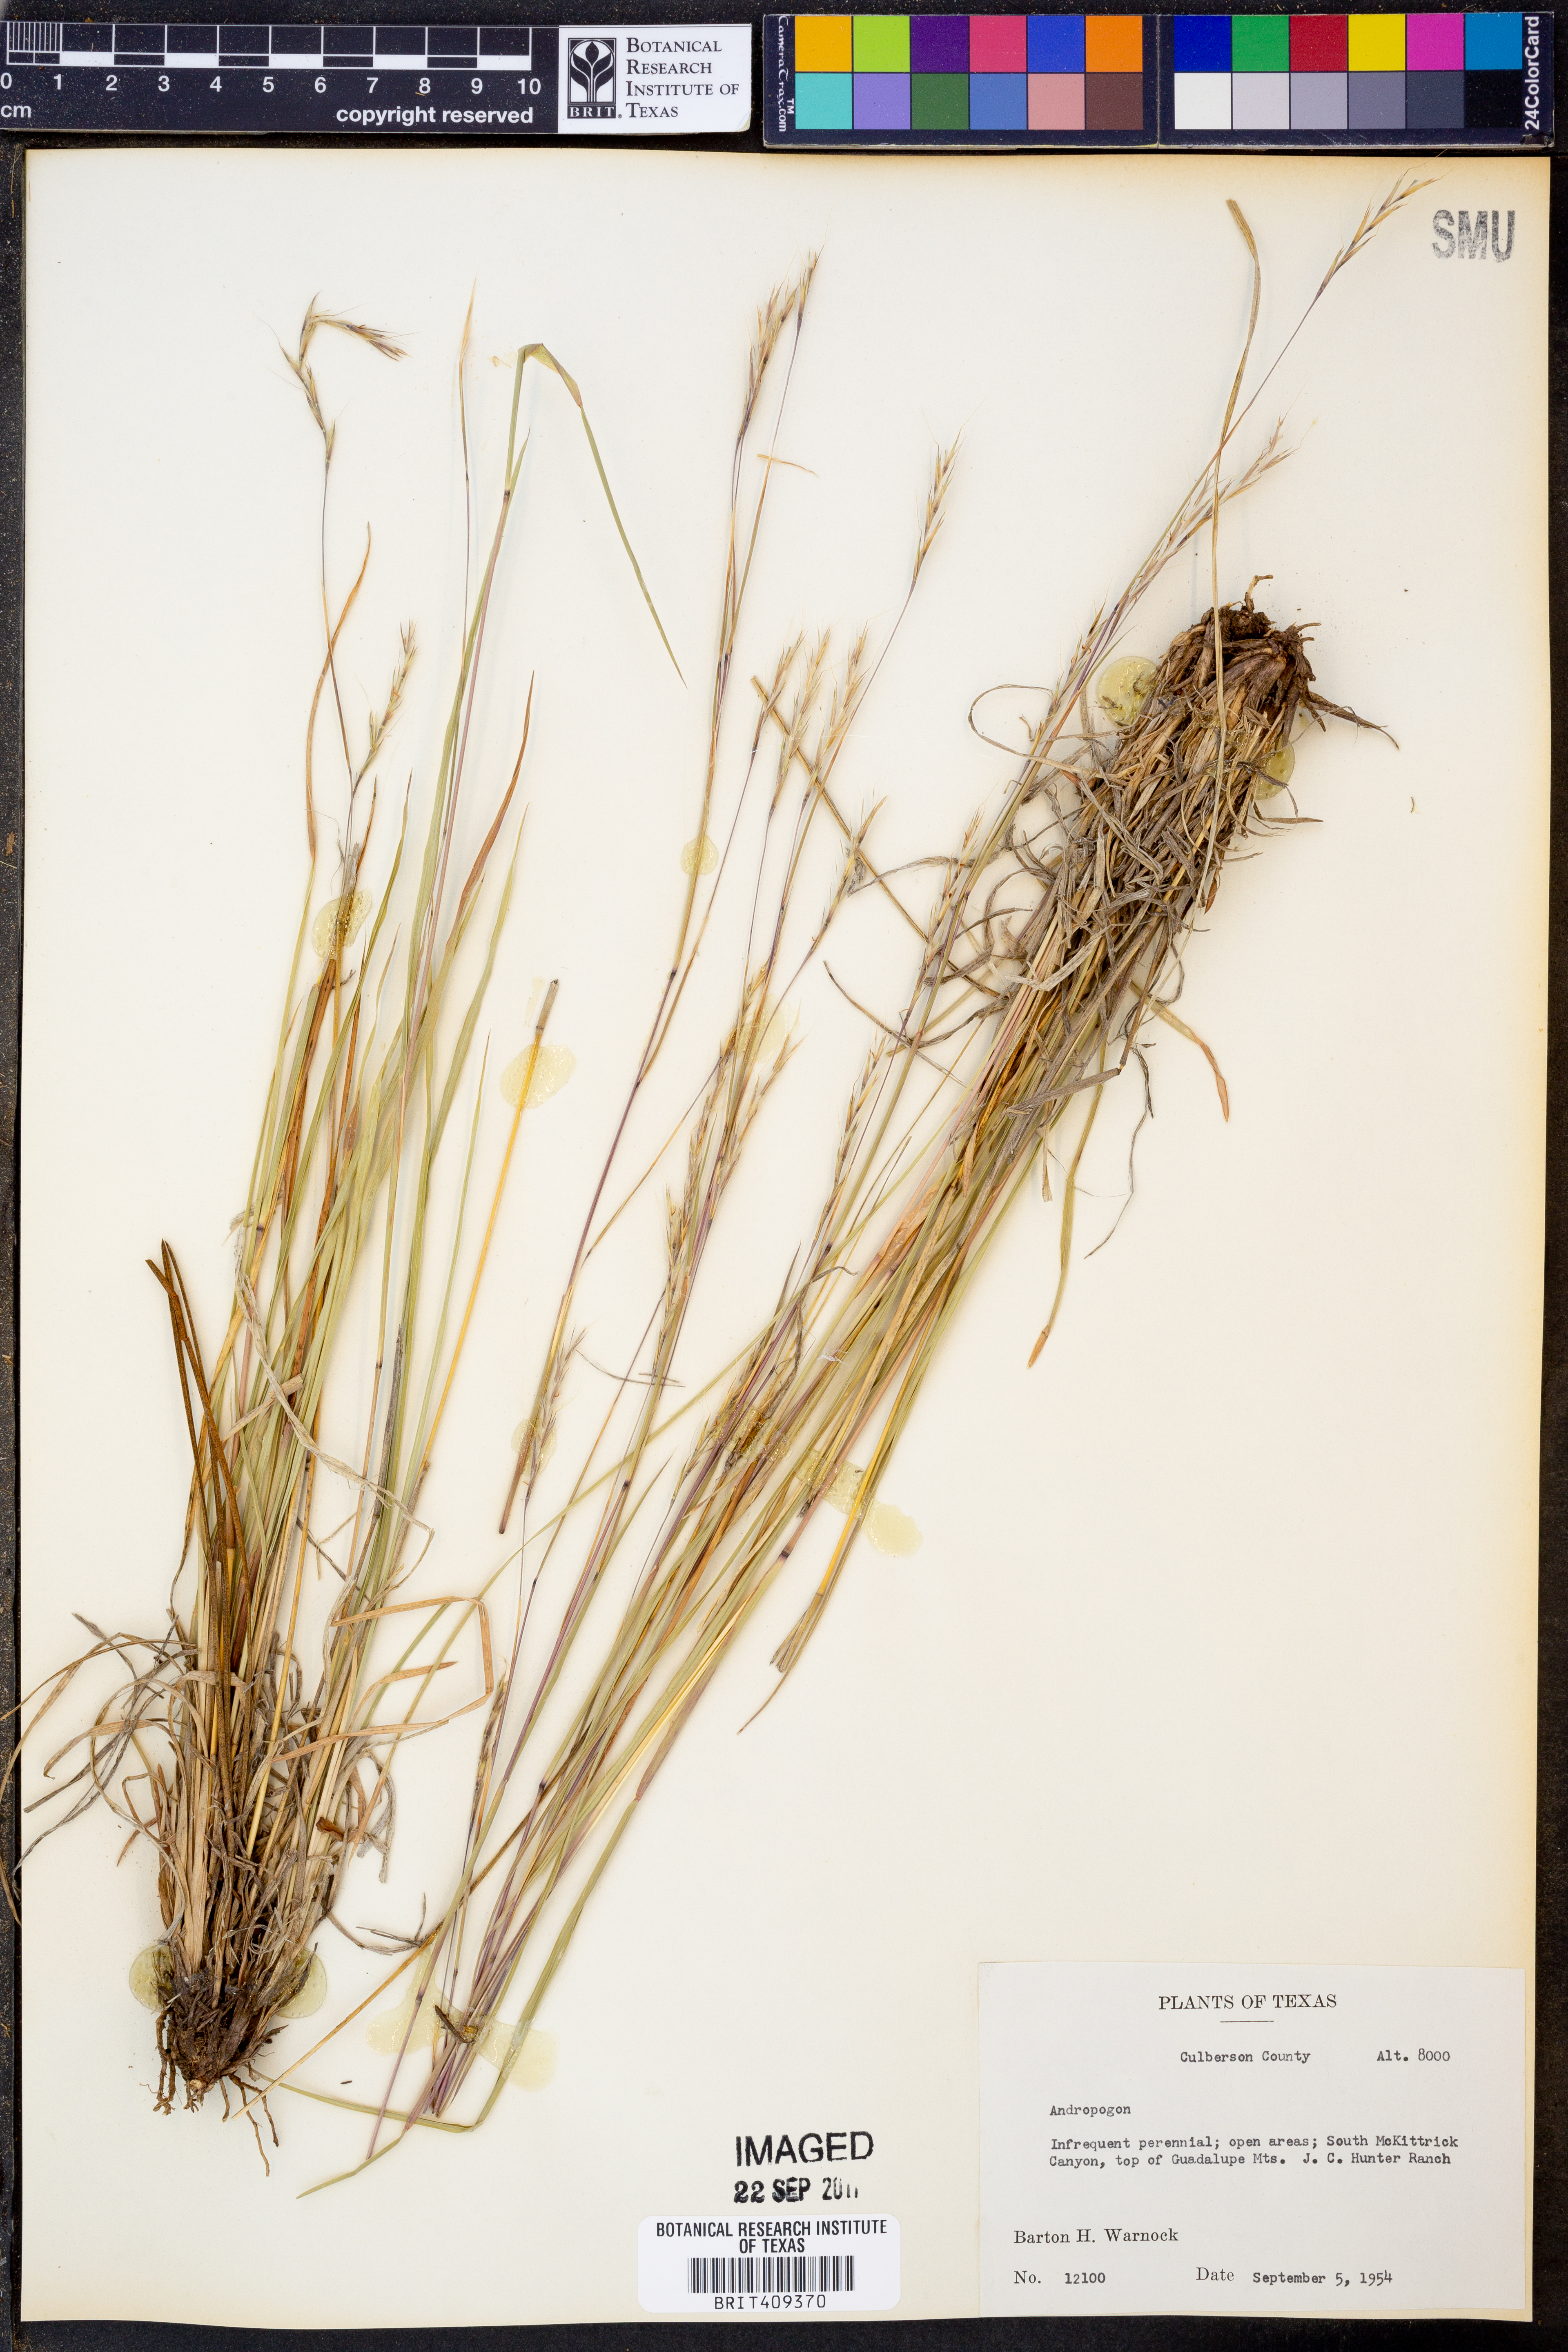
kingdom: Plantae
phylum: Tracheophyta
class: Liliopsida
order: Poales
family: Poaceae
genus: Andropogon
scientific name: Andropogon
